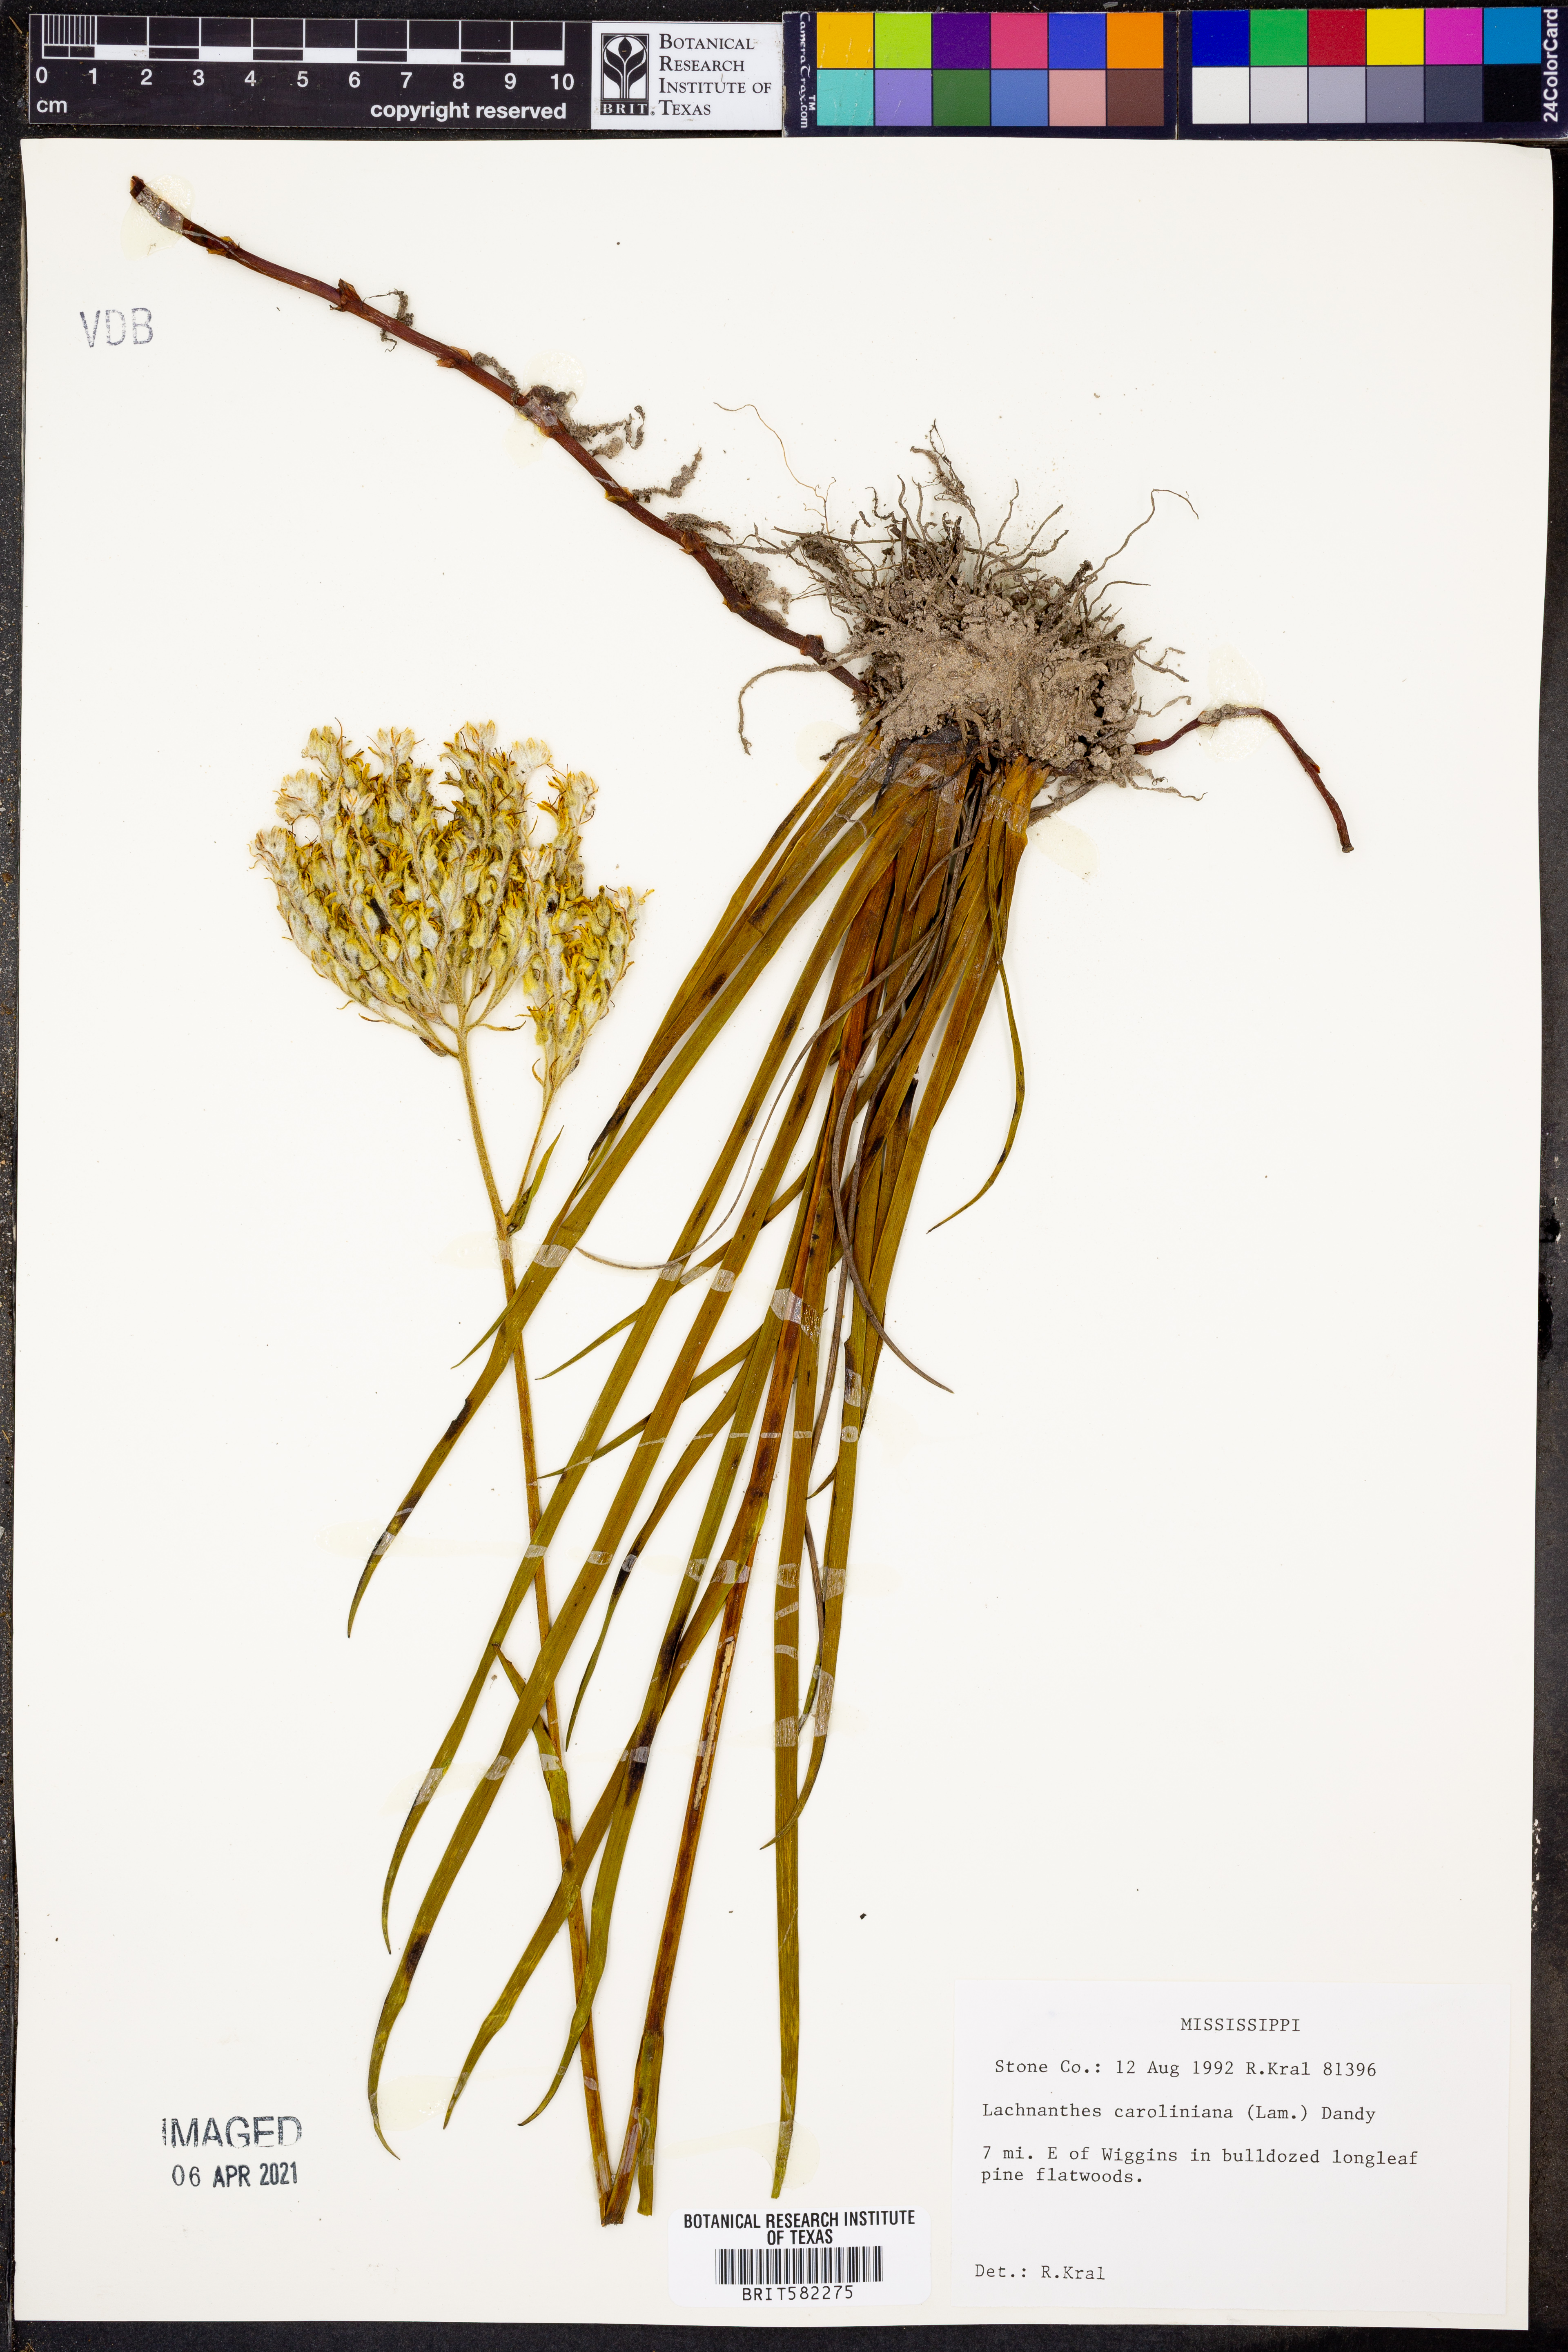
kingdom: Plantae
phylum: Tracheophyta
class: Liliopsida
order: Commelinales
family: Haemodoraceae
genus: Lachnanthes
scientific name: Lachnanthes caroliniana
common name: Carolina redroot
